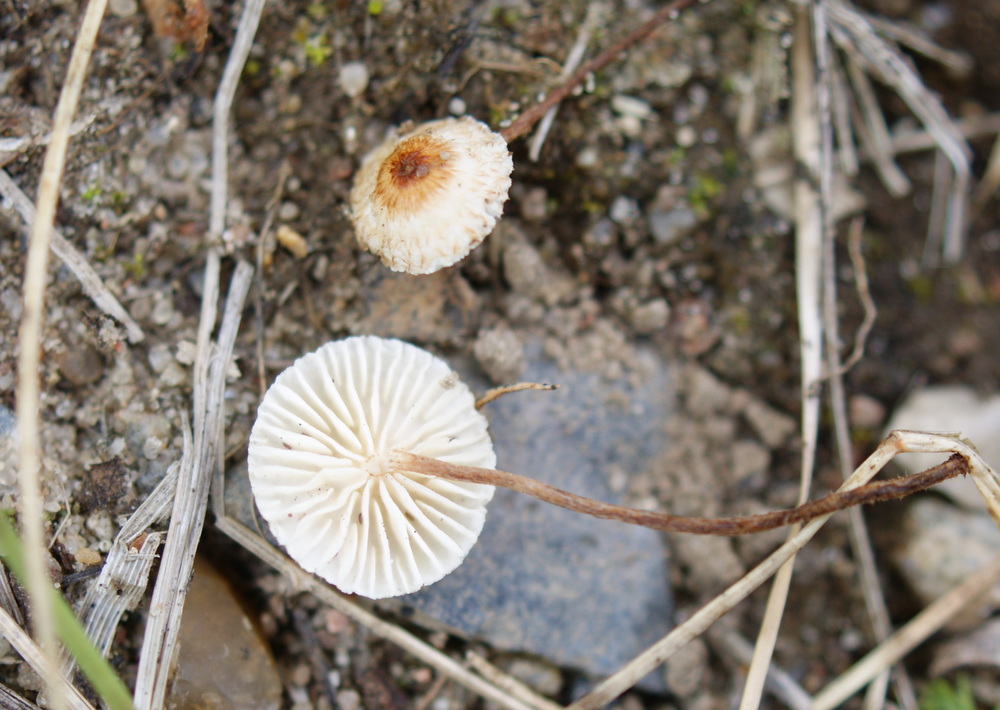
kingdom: Fungi
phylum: Basidiomycota
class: Agaricomycetes
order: Agaricales
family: Marasmiaceae
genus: Crinipellis
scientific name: Crinipellis scabella
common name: børstefod
